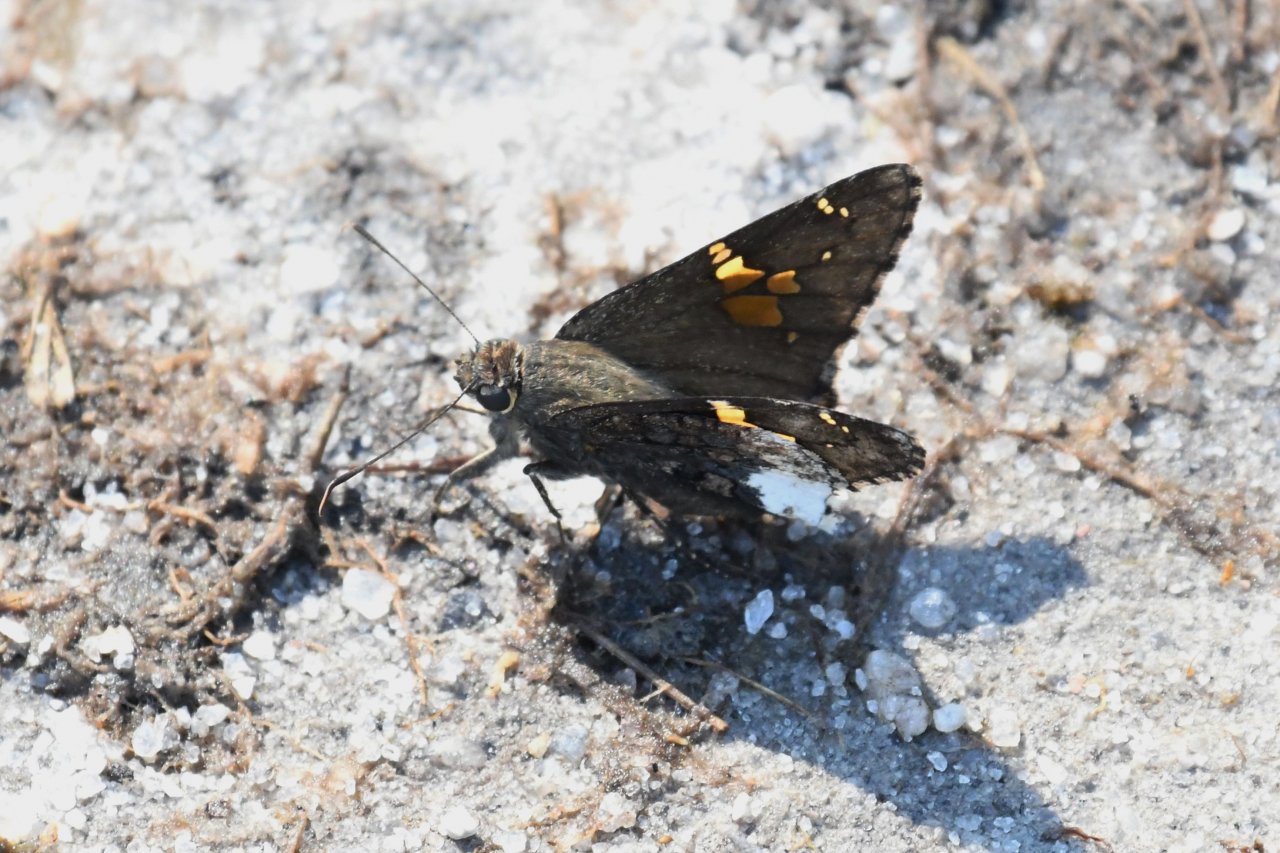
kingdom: Animalia
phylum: Arthropoda
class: Insecta
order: Lepidoptera
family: Hesperiidae
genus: Achalarus
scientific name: Achalarus lyciades
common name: Hoary Edge
